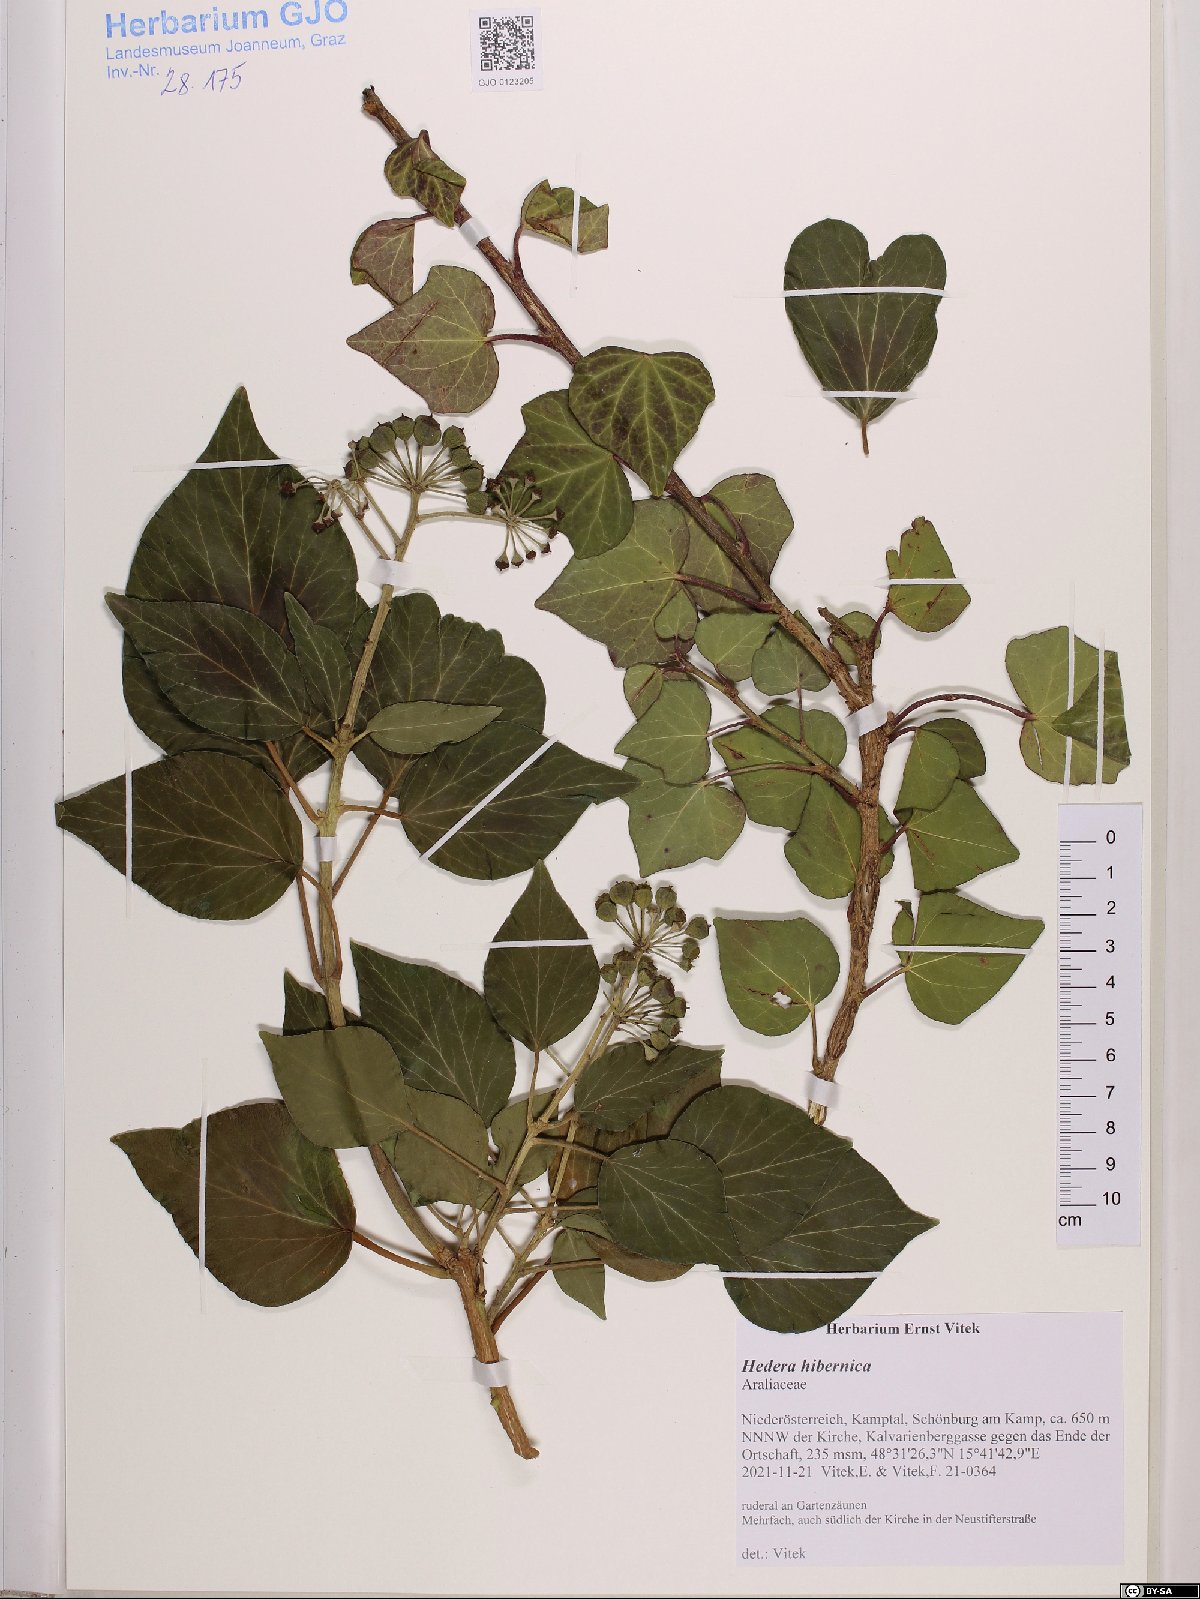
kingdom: Plantae
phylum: Tracheophyta
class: Magnoliopsida
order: Apiales
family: Araliaceae
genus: Hedera
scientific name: Hedera hibernica
